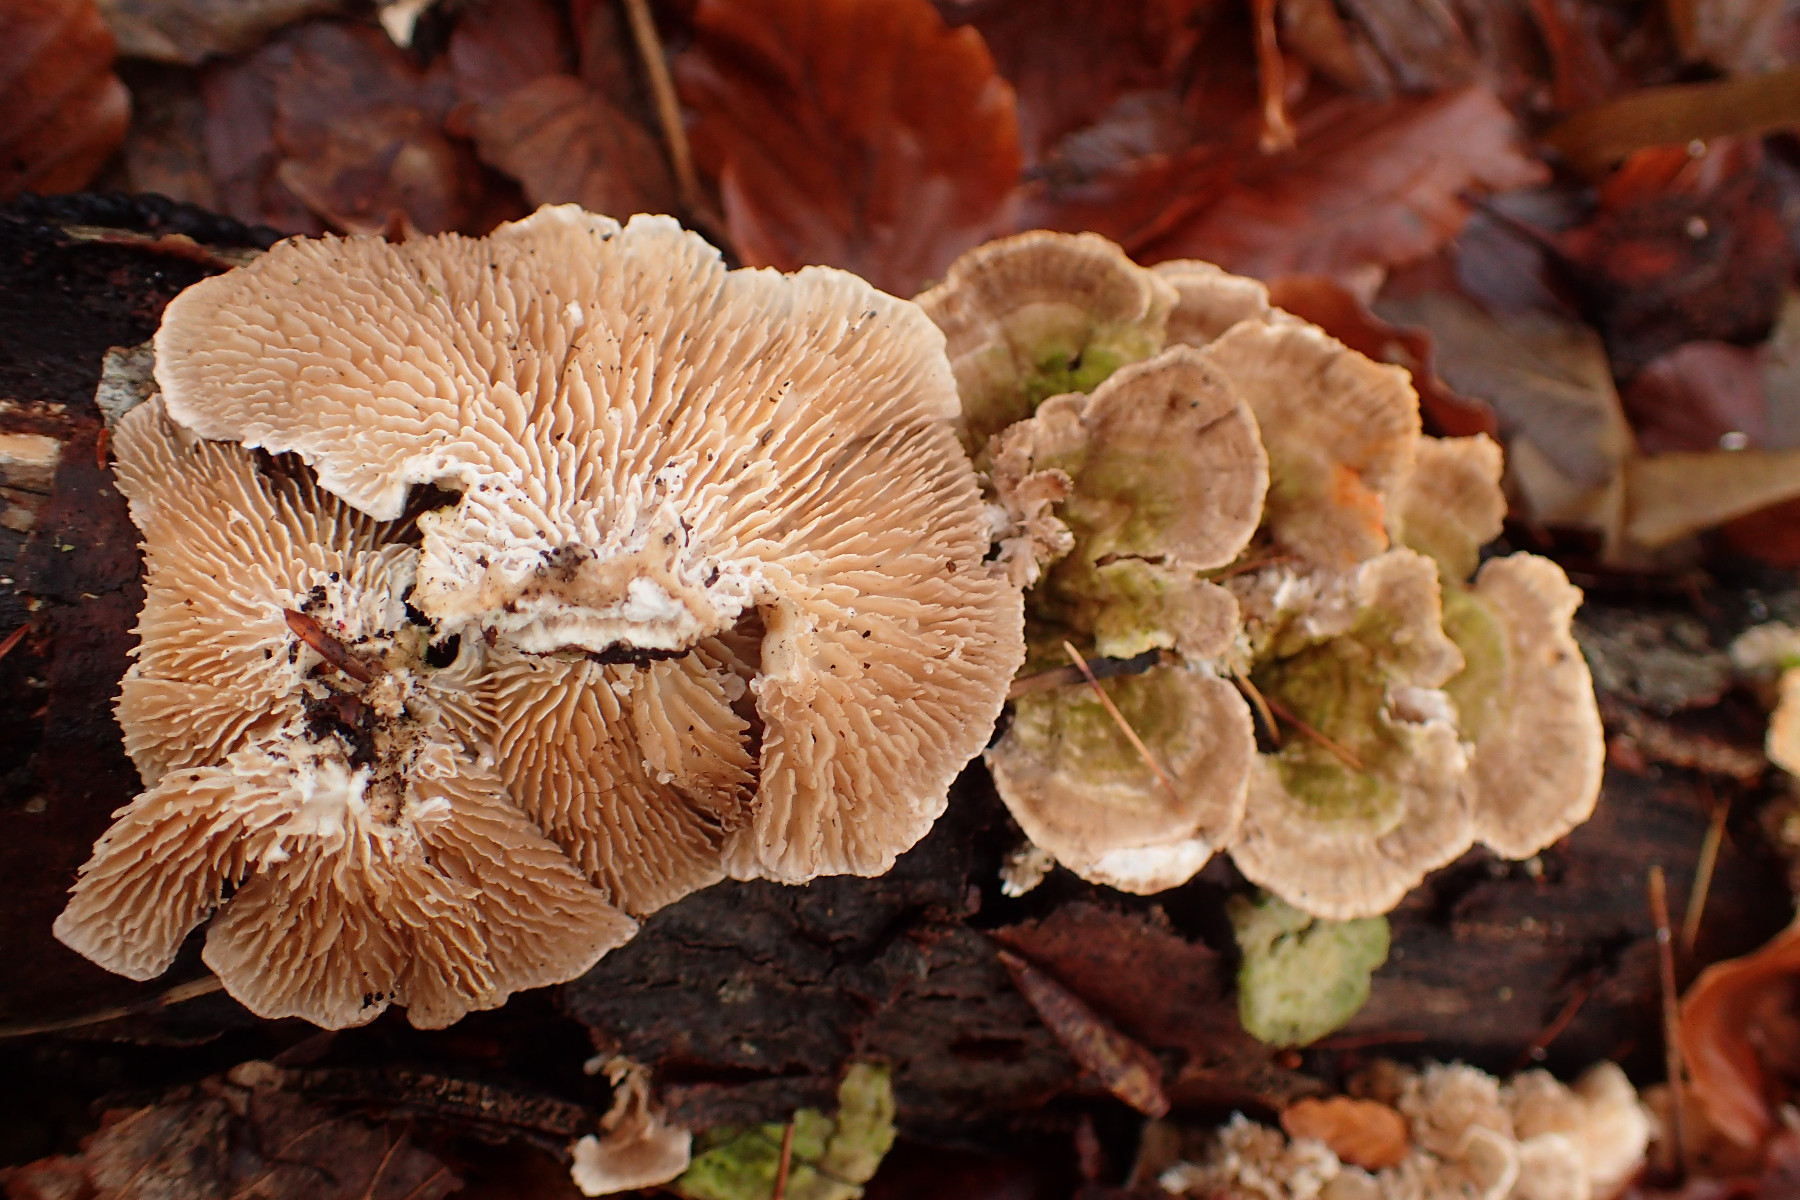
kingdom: Fungi
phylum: Basidiomycota
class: Agaricomycetes
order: Polyporales
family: Polyporaceae
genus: Lenzites
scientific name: Lenzites betulinus
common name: birke-læderporesvamp
